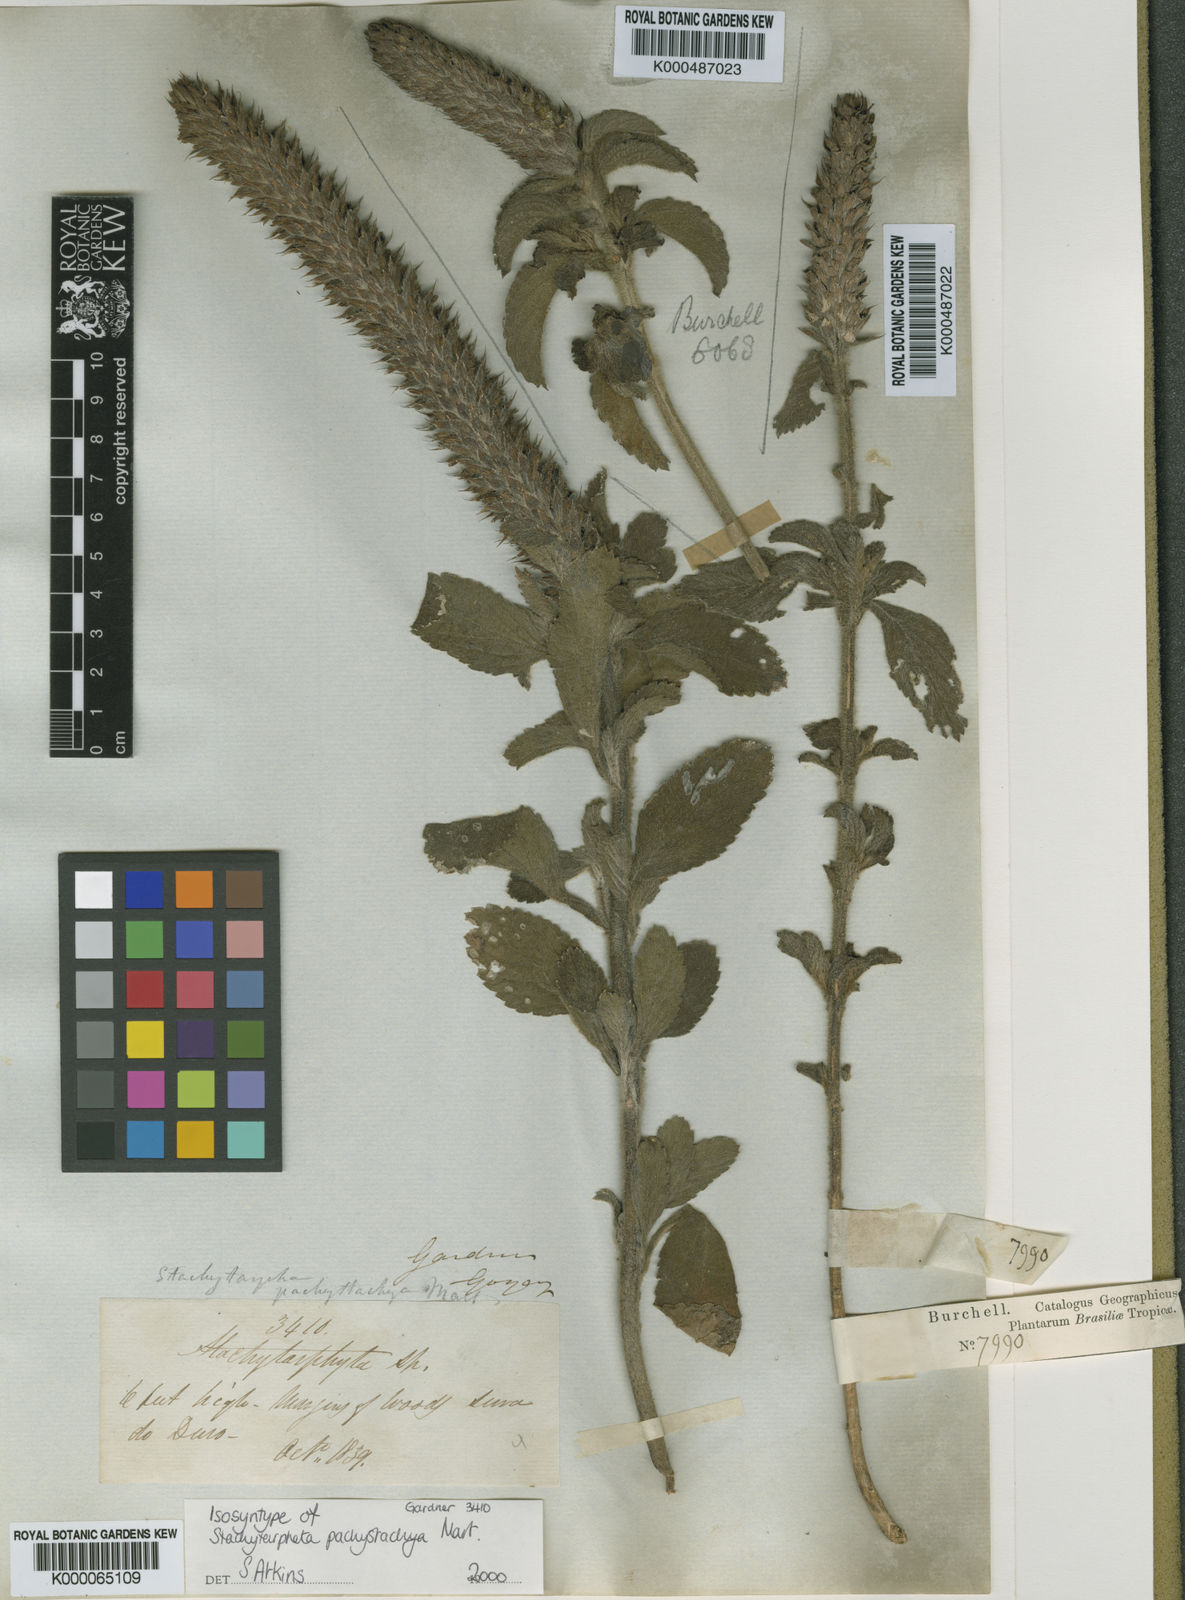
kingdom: Plantae
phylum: Tracheophyta
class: Magnoliopsida
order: Lamiales
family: Verbenaceae
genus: Stachytarpheta
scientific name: Stachytarpheta pachystachya
